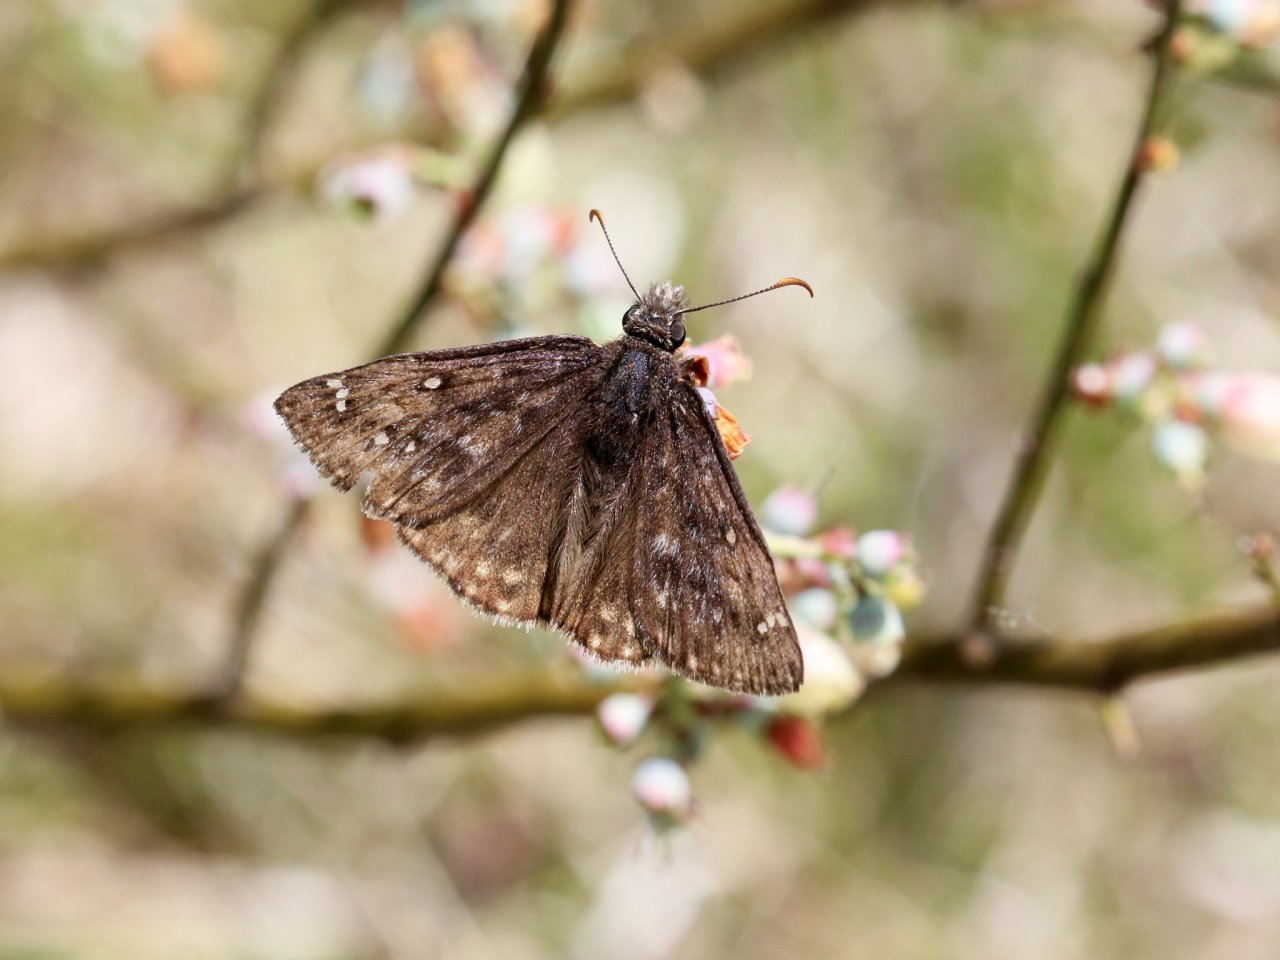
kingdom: Animalia
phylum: Arthropoda
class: Insecta
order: Lepidoptera
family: Hesperiidae
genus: Erynnis
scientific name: Erynnis
